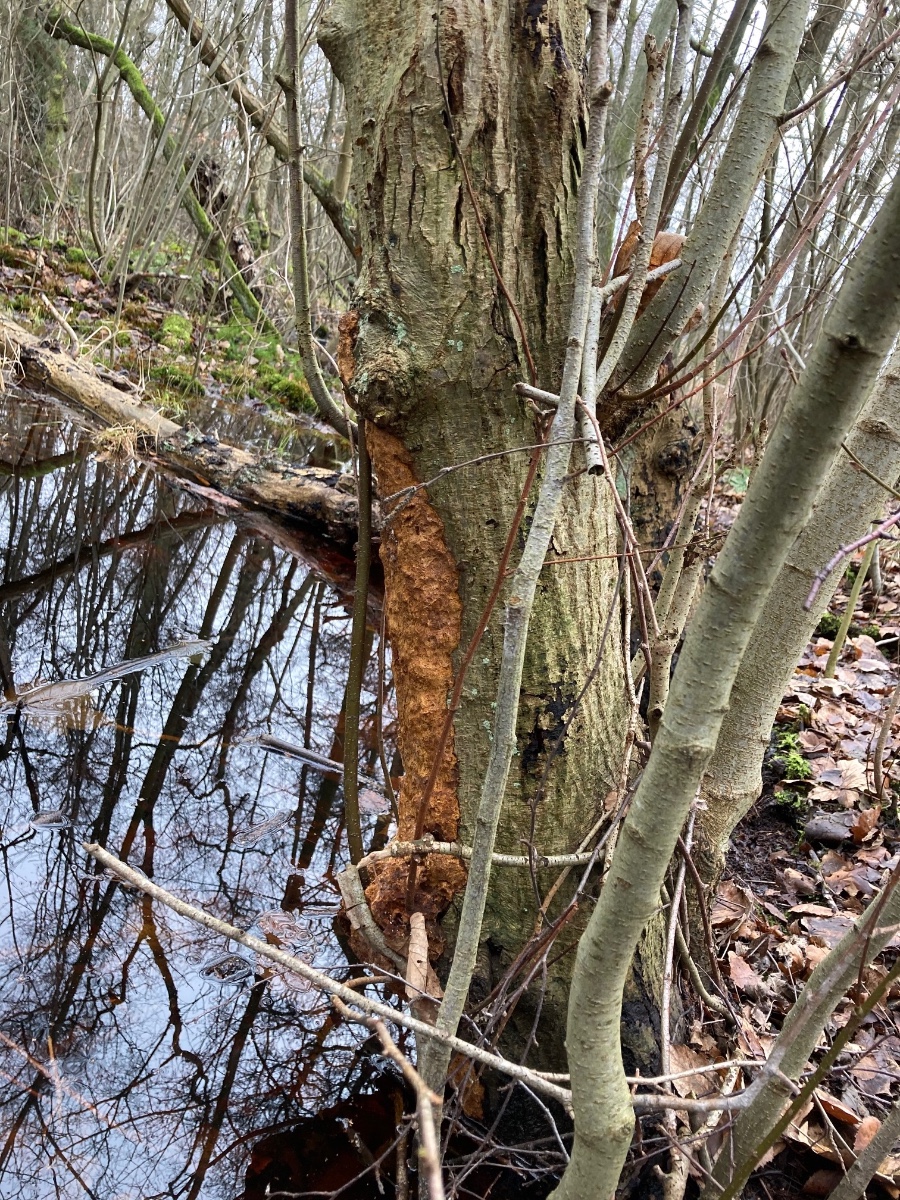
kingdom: Fungi
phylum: Basidiomycota
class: Agaricomycetes
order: Hymenochaetales
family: Hymenochaetaceae
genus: Xanthoporia
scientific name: Xanthoporia radiata
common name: elle-spejlporesvamp
